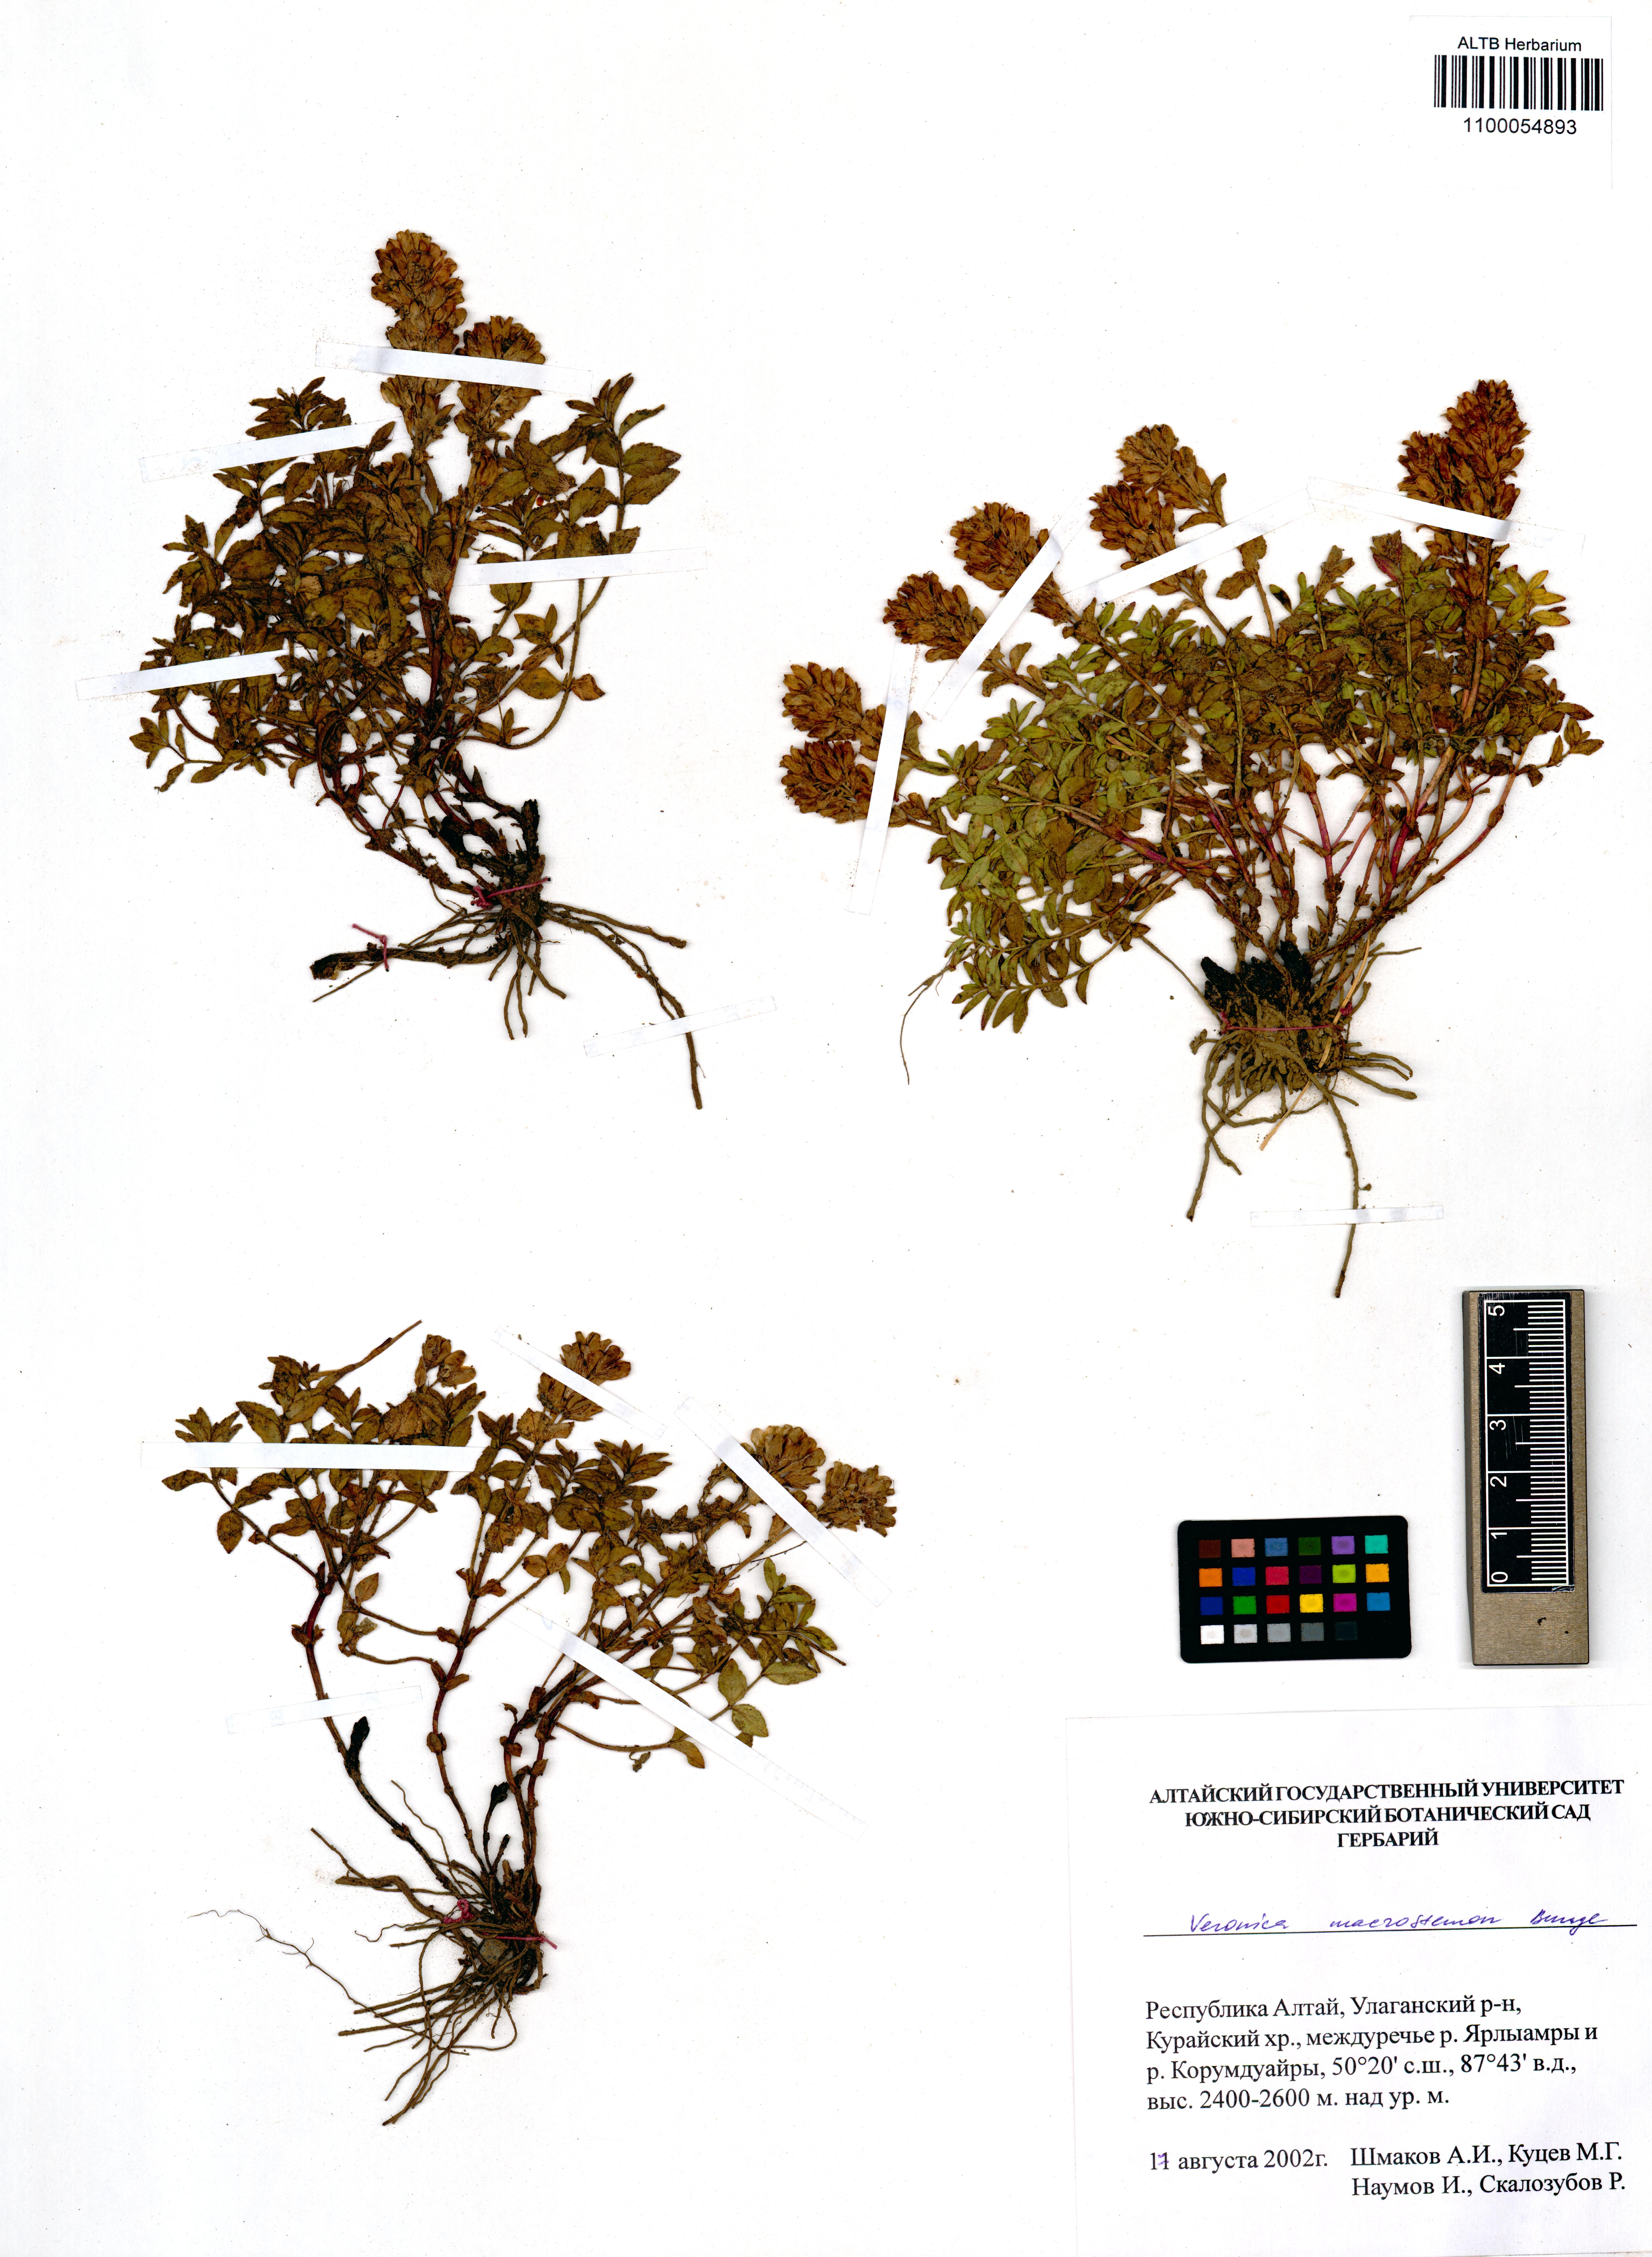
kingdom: Plantae
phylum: Tracheophyta
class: Magnoliopsida
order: Lamiales
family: Plantaginaceae
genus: Veronica
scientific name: Veronica macrostemon
